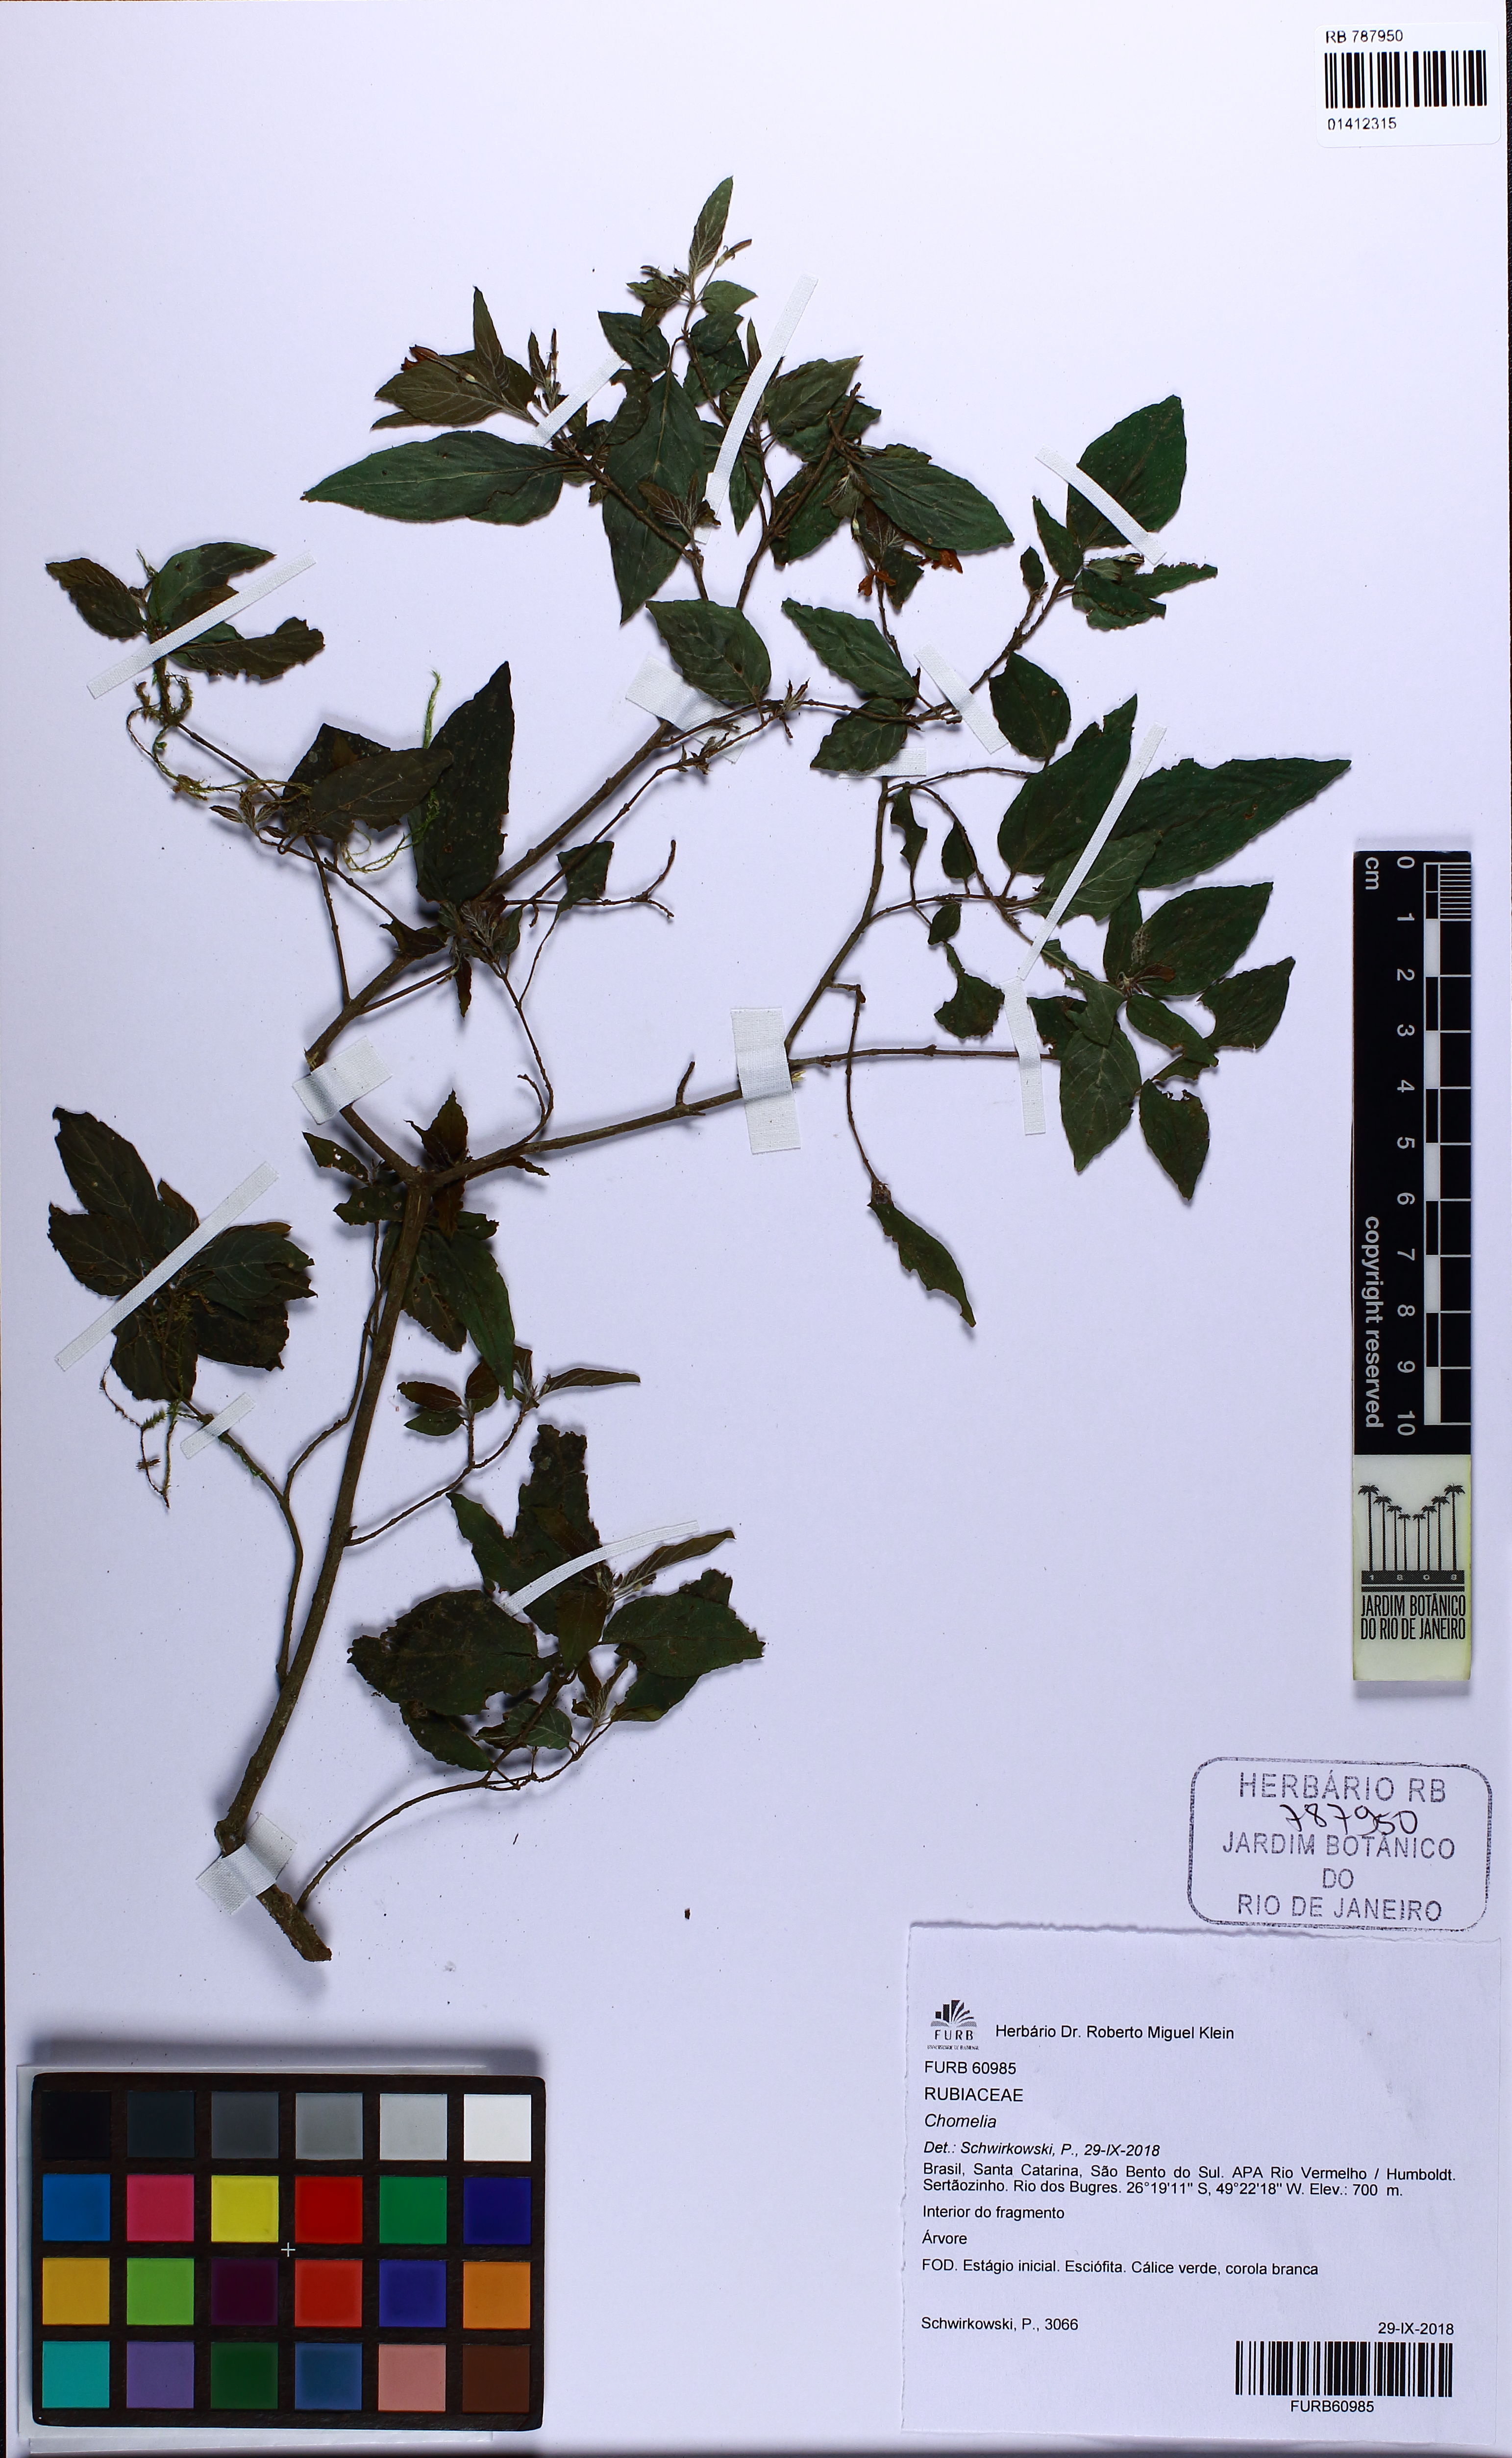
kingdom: Plantae
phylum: Tracheophyta
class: Magnoliopsida
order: Gentianales
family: Rubiaceae
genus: Chomelia
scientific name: Chomelia
